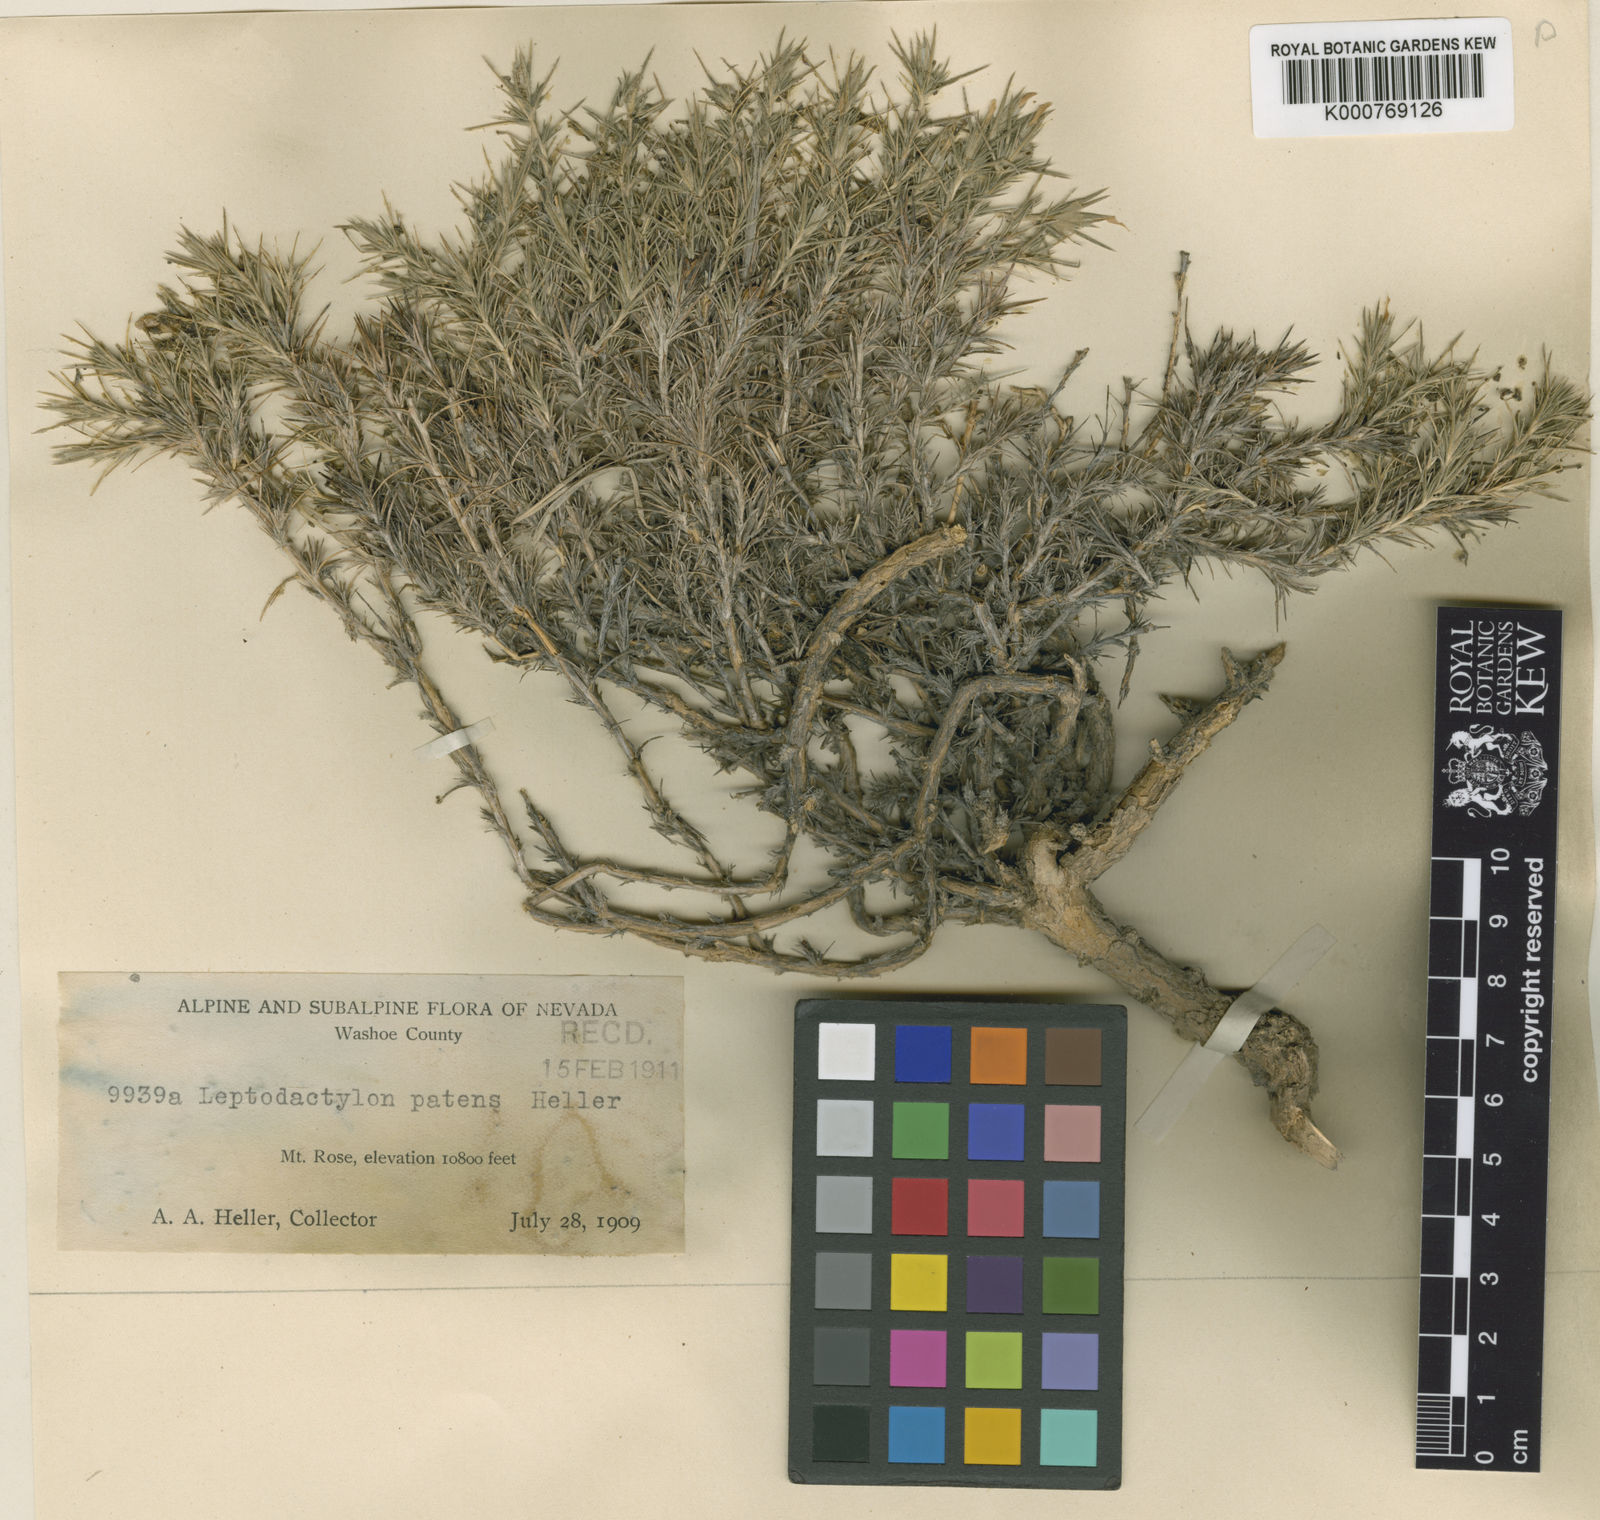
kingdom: Plantae
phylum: Tracheophyta
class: Magnoliopsida
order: Ericales
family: Polemoniaceae
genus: Linanthus
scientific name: Linanthus pungens
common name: Granite prickly phlox
